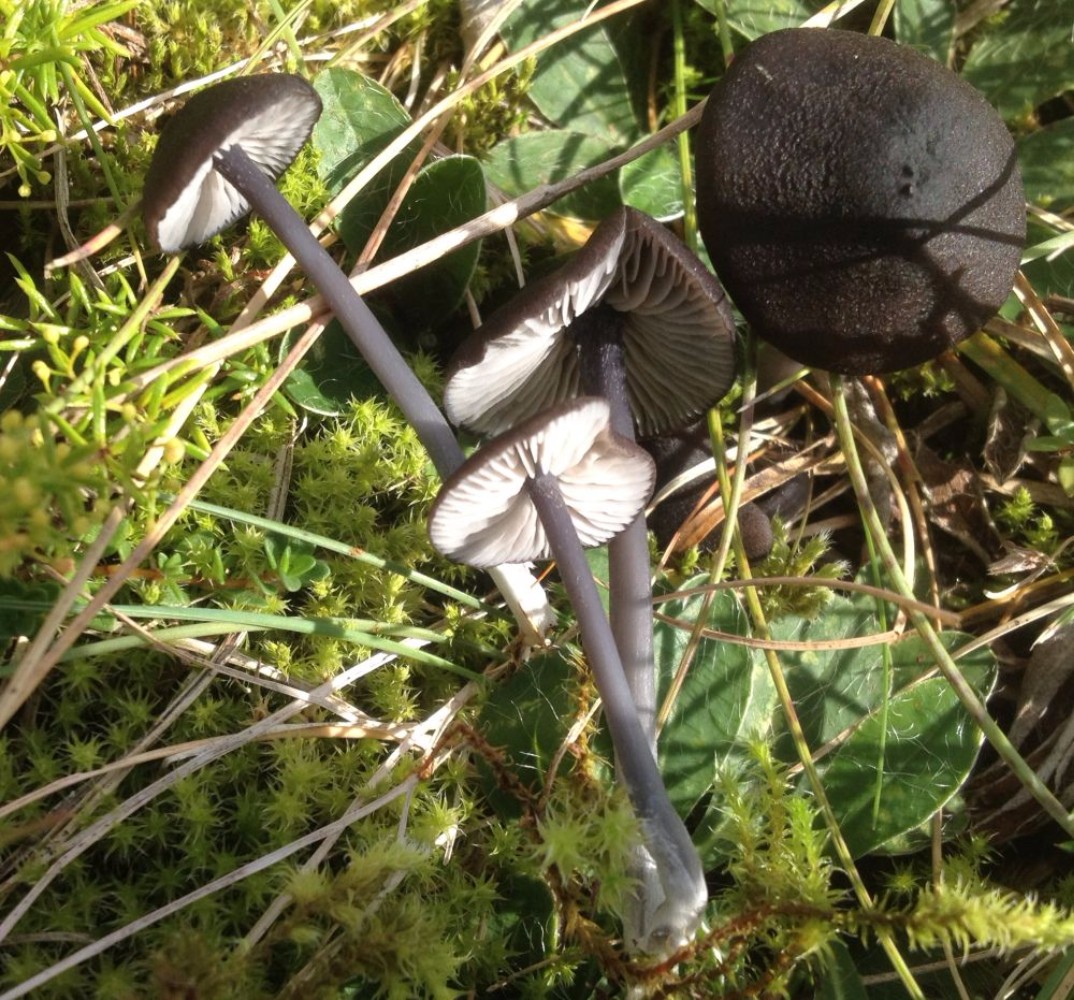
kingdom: Fungi
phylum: Basidiomycota
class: Agaricomycetes
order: Agaricales
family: Entolomataceae
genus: Entoloma
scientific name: Entoloma chalybeum
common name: blåbladet rødblad
